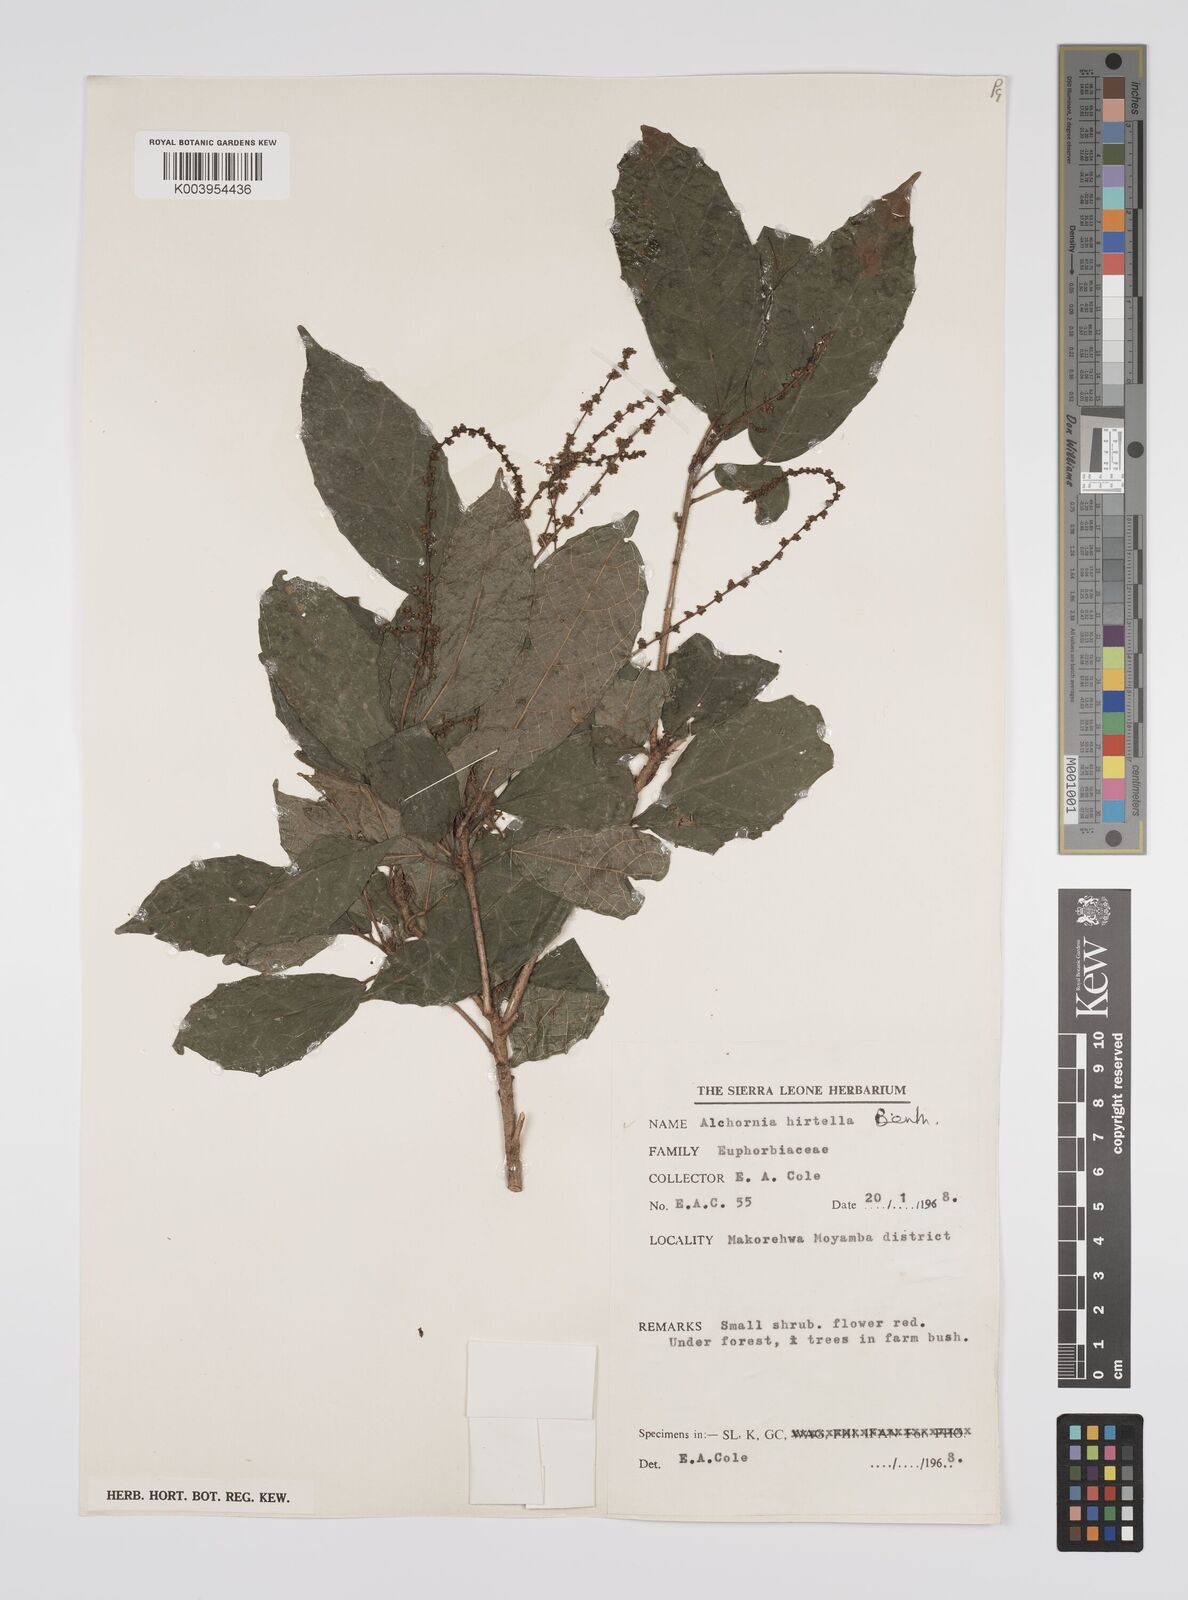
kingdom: Plantae
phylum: Tracheophyta
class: Magnoliopsida
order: Malpighiales
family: Euphorbiaceae
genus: Alchornea
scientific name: Alchornea hirtella
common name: Forest bead-string
